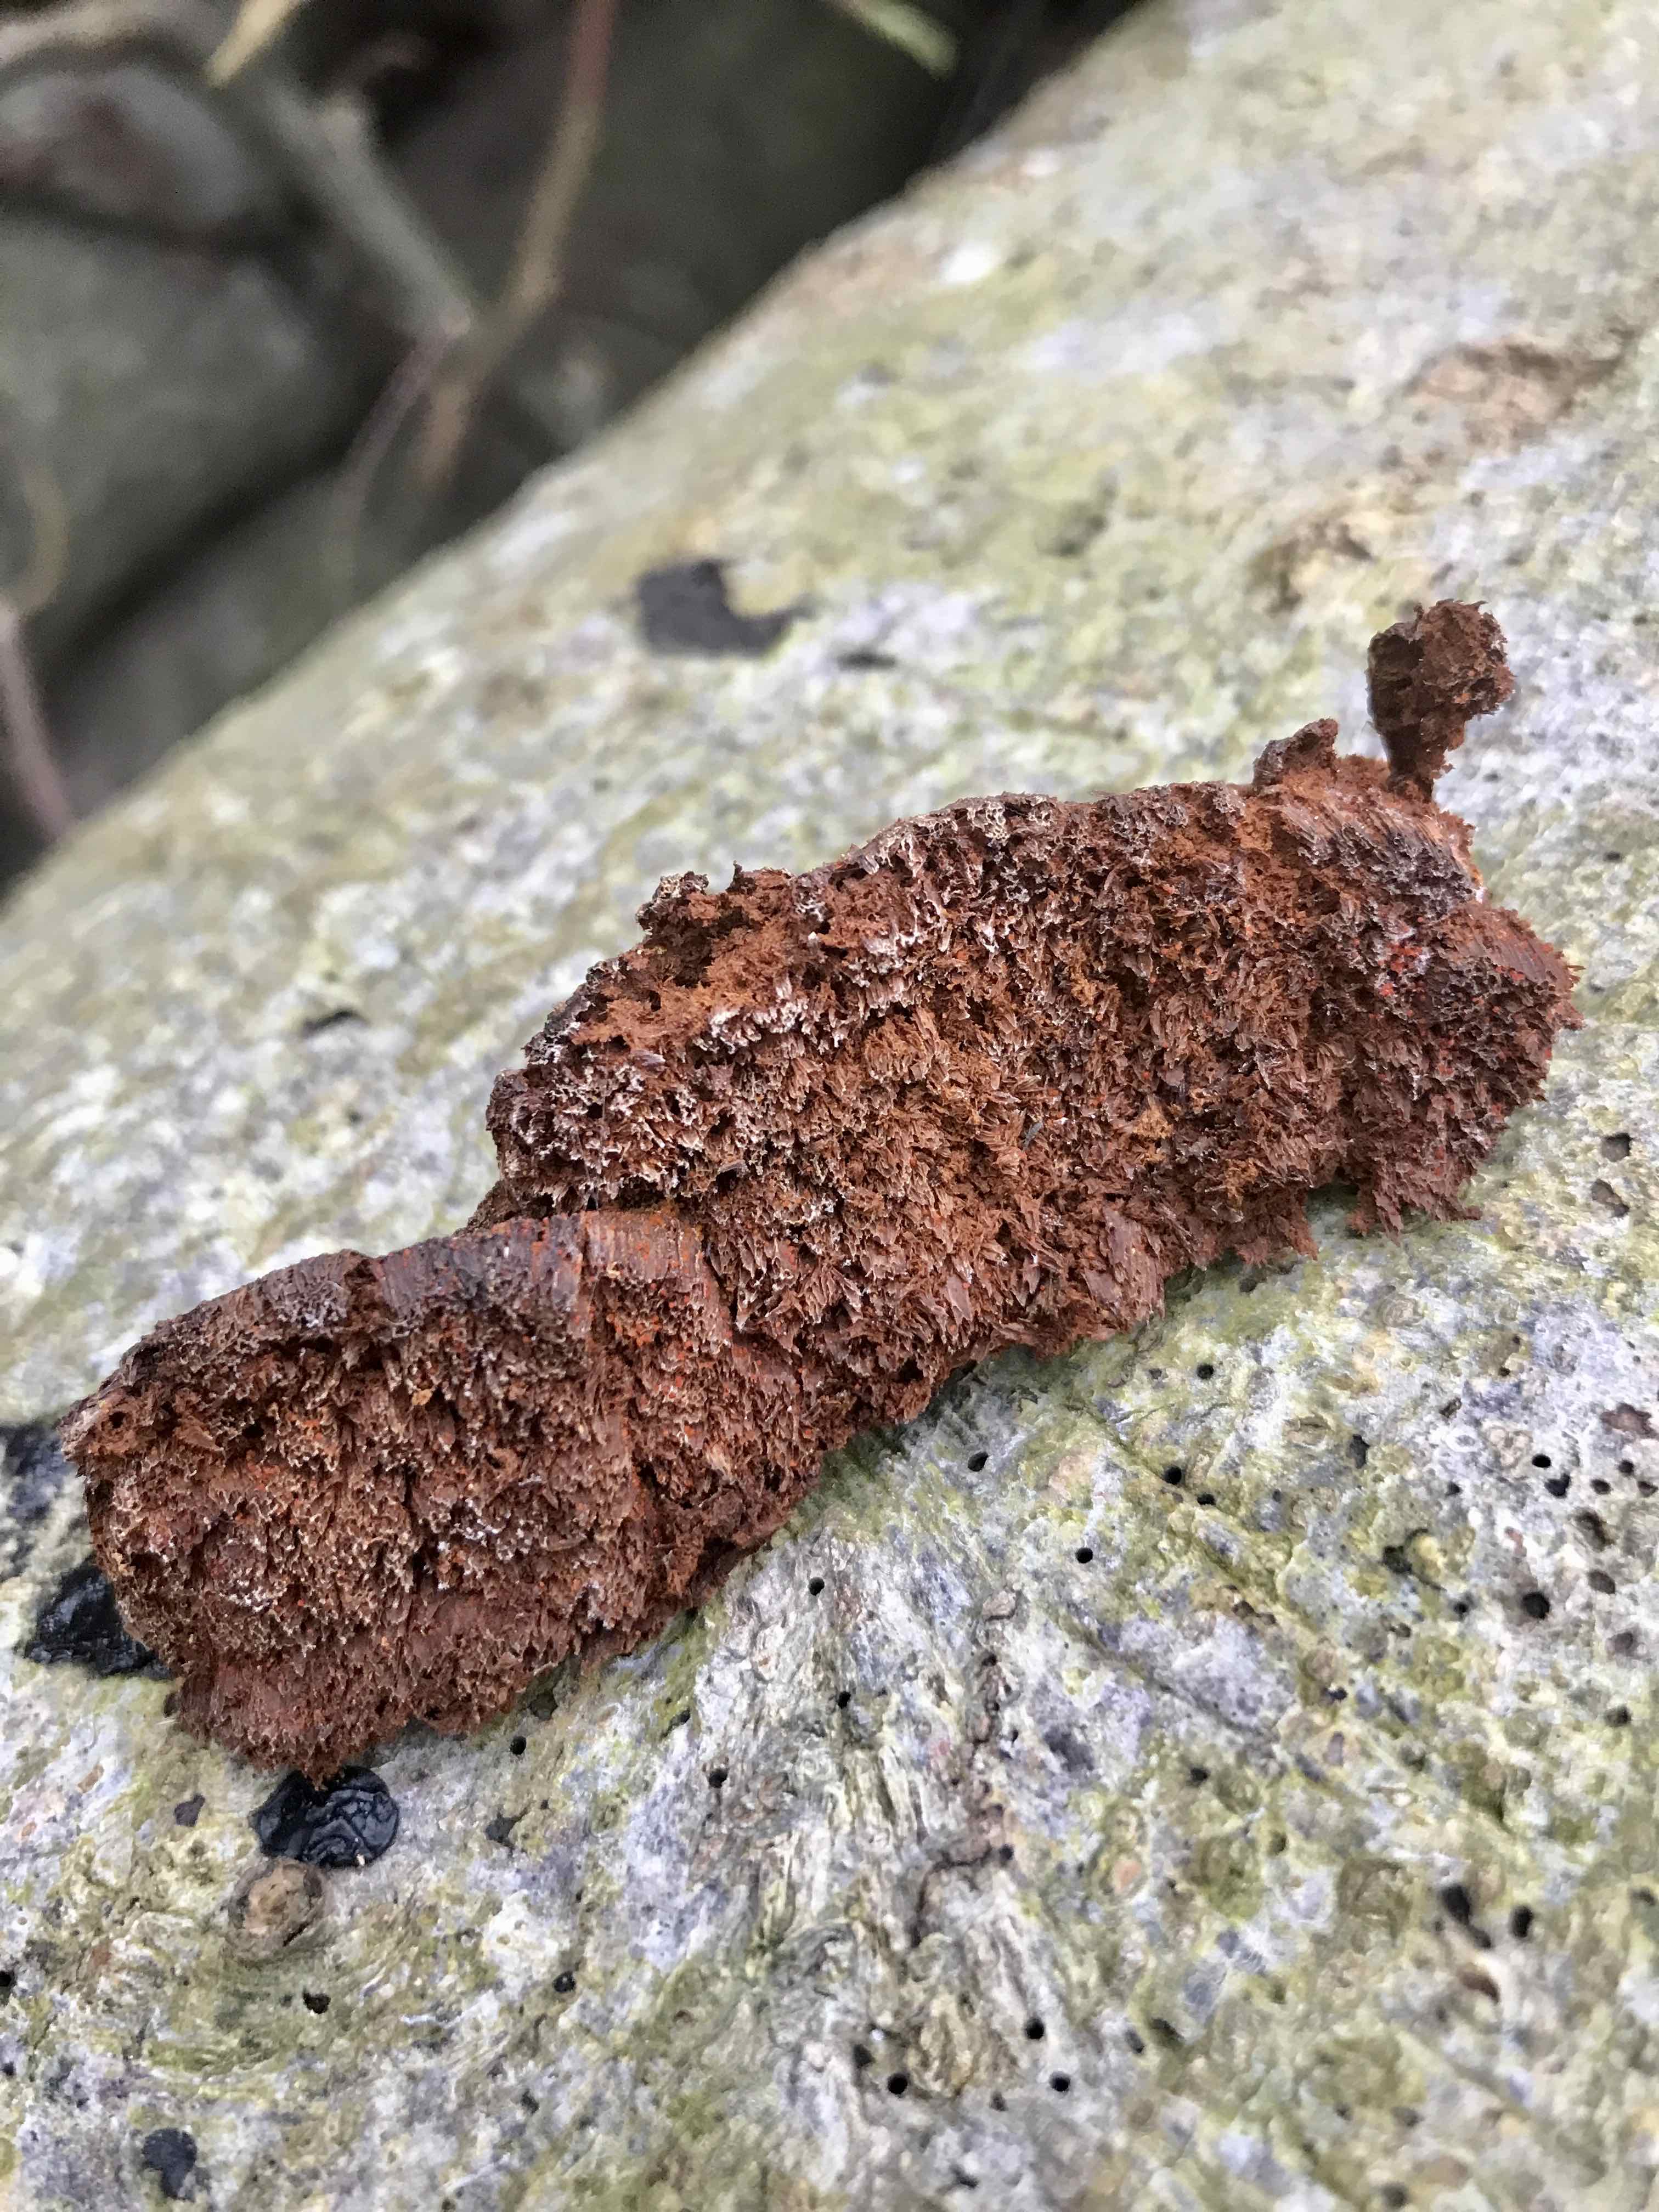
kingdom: Fungi
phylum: Basidiomycota
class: Agaricomycetes
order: Hymenochaetales
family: Hymenochaetaceae
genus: Mensularia
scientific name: Mensularia nodulosa
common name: bøge-spejlporesvamp
